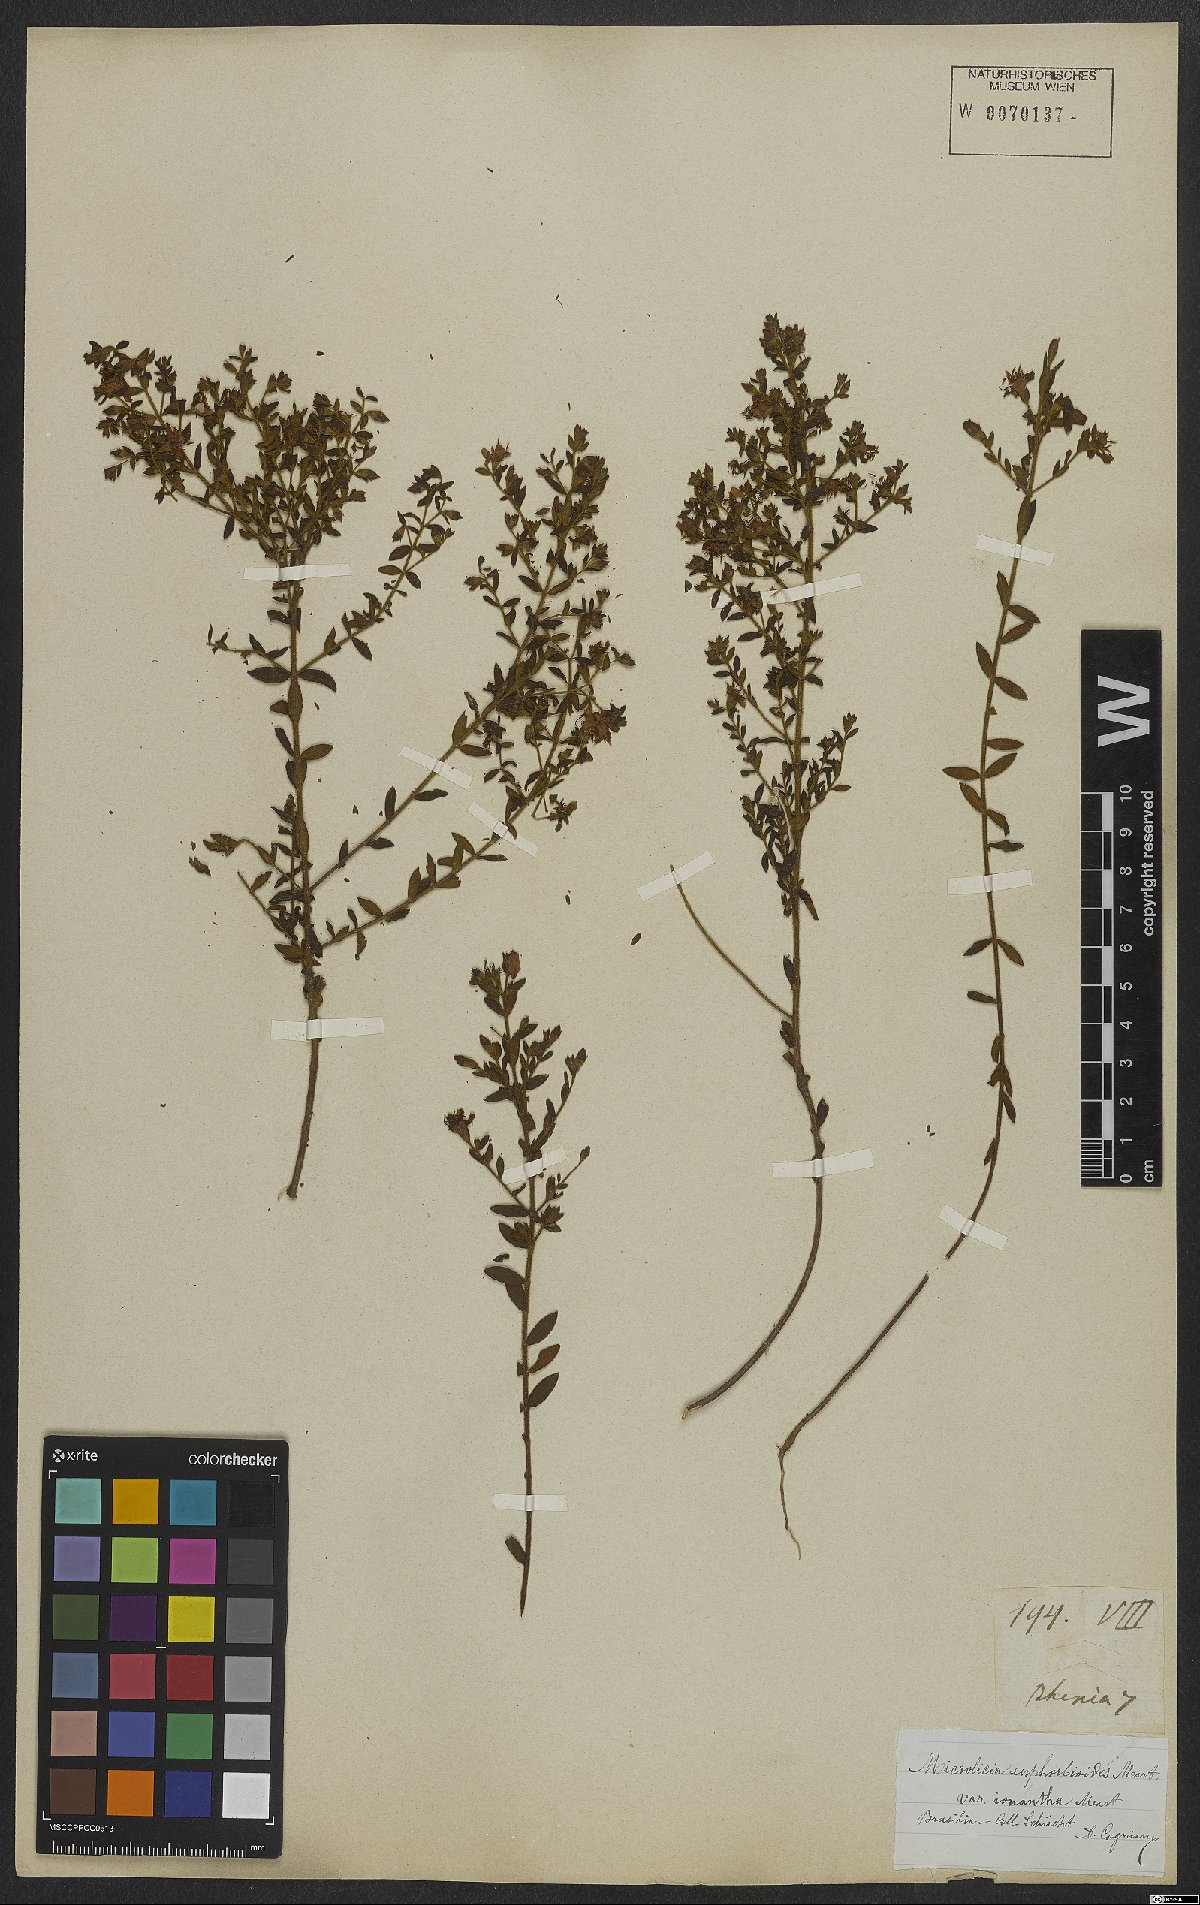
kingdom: Plantae
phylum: Tracheophyta
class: Magnoliopsida
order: Myrtales
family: Melastomataceae
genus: Microlicia
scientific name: Microlicia euphorbioides
